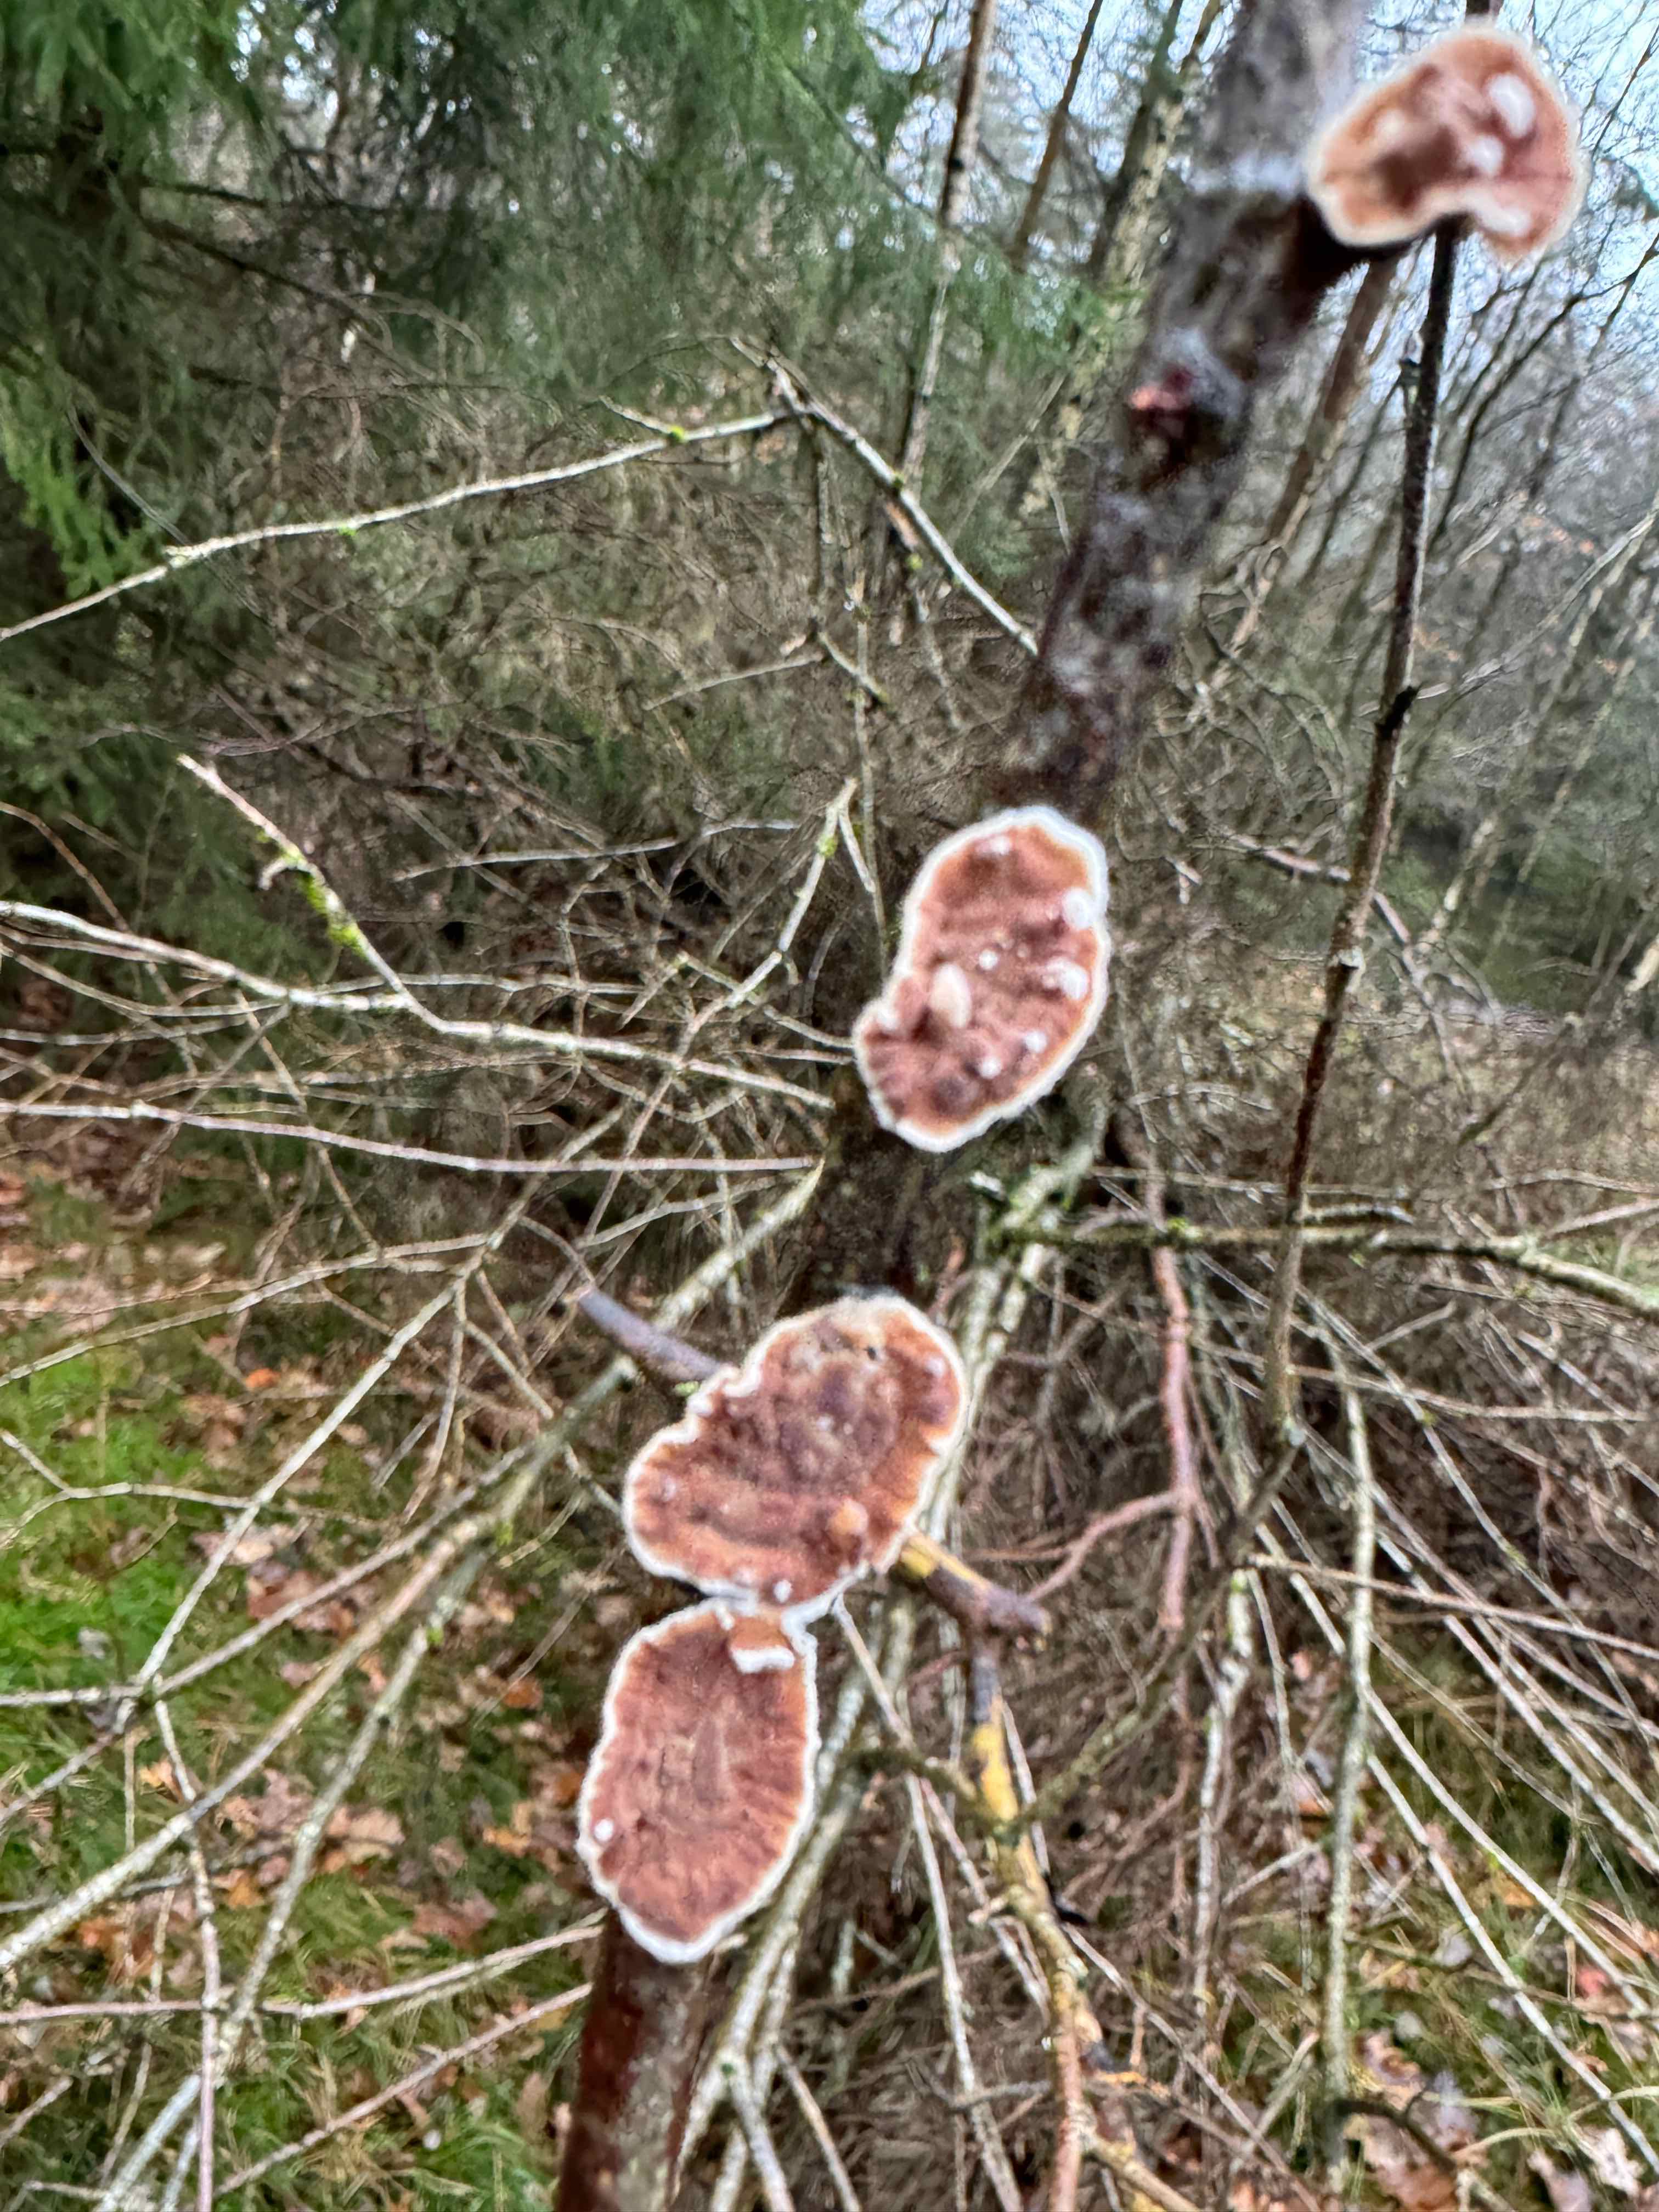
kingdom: Fungi
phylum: Basidiomycota
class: Agaricomycetes
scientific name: Agaricomycetes
